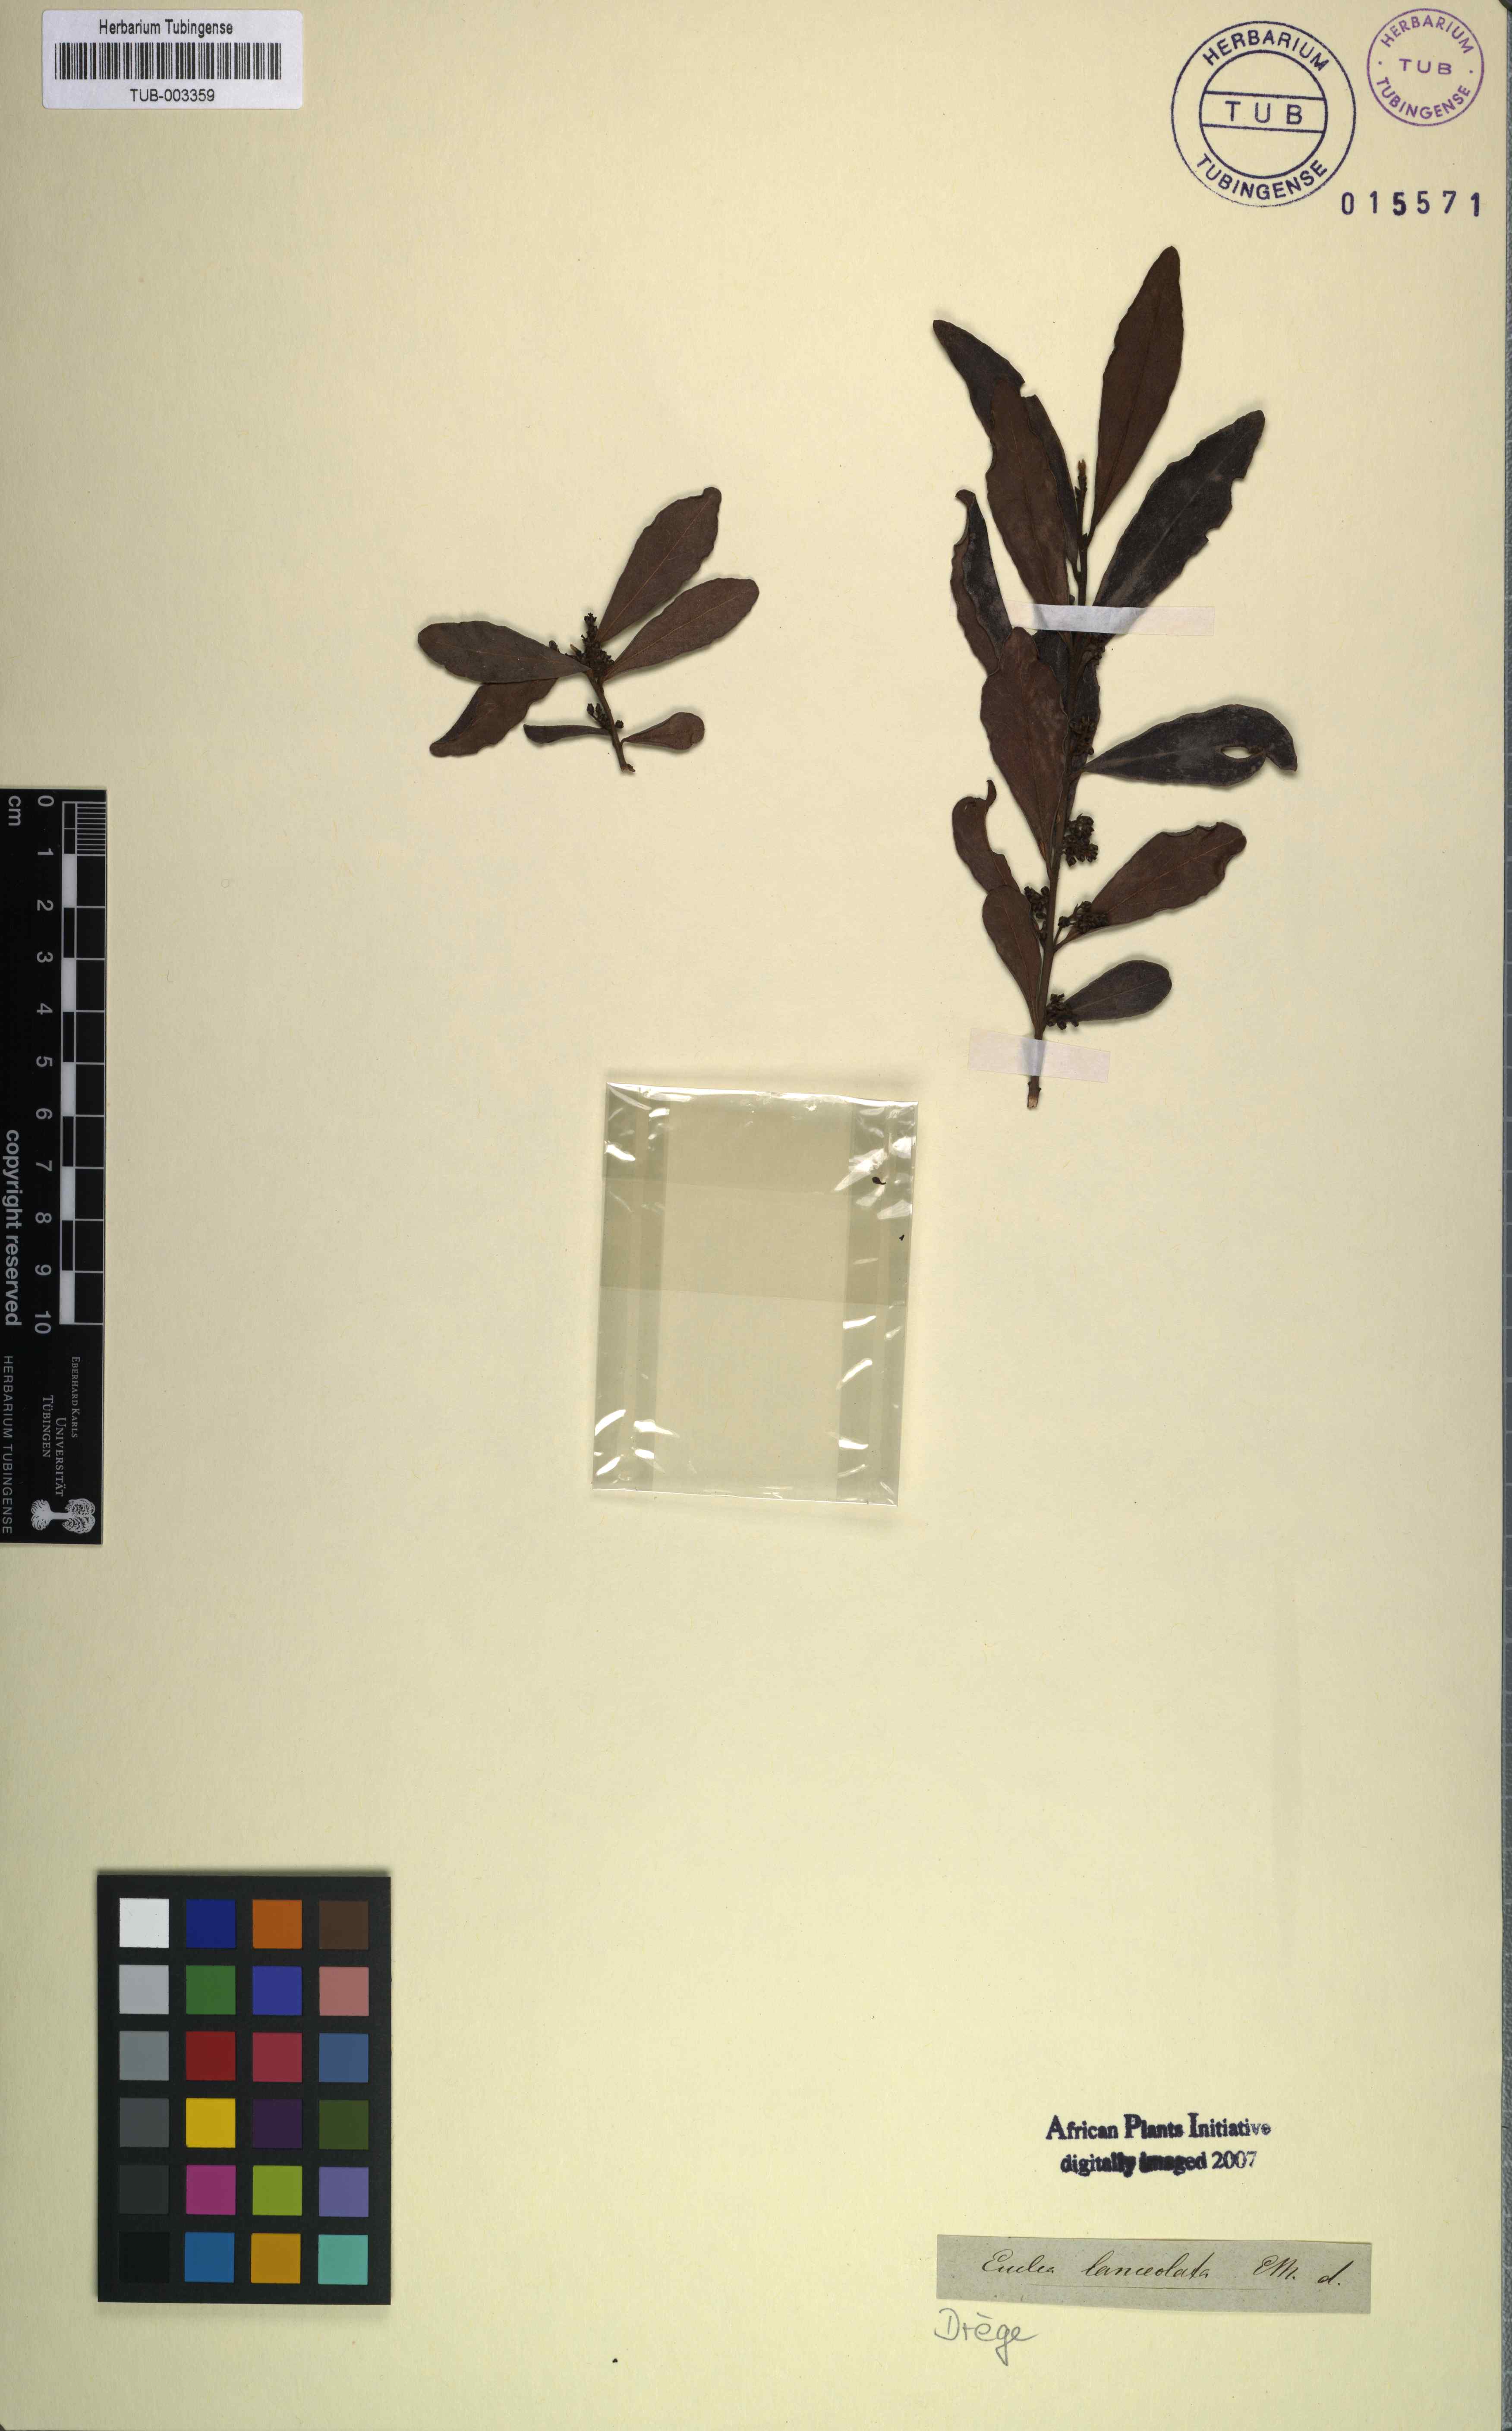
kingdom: Plantae
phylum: Tracheophyta
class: Magnoliopsida
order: Ericales
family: Ebenaceae
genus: Euclea
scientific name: Euclea crispa
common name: Blue guarri
